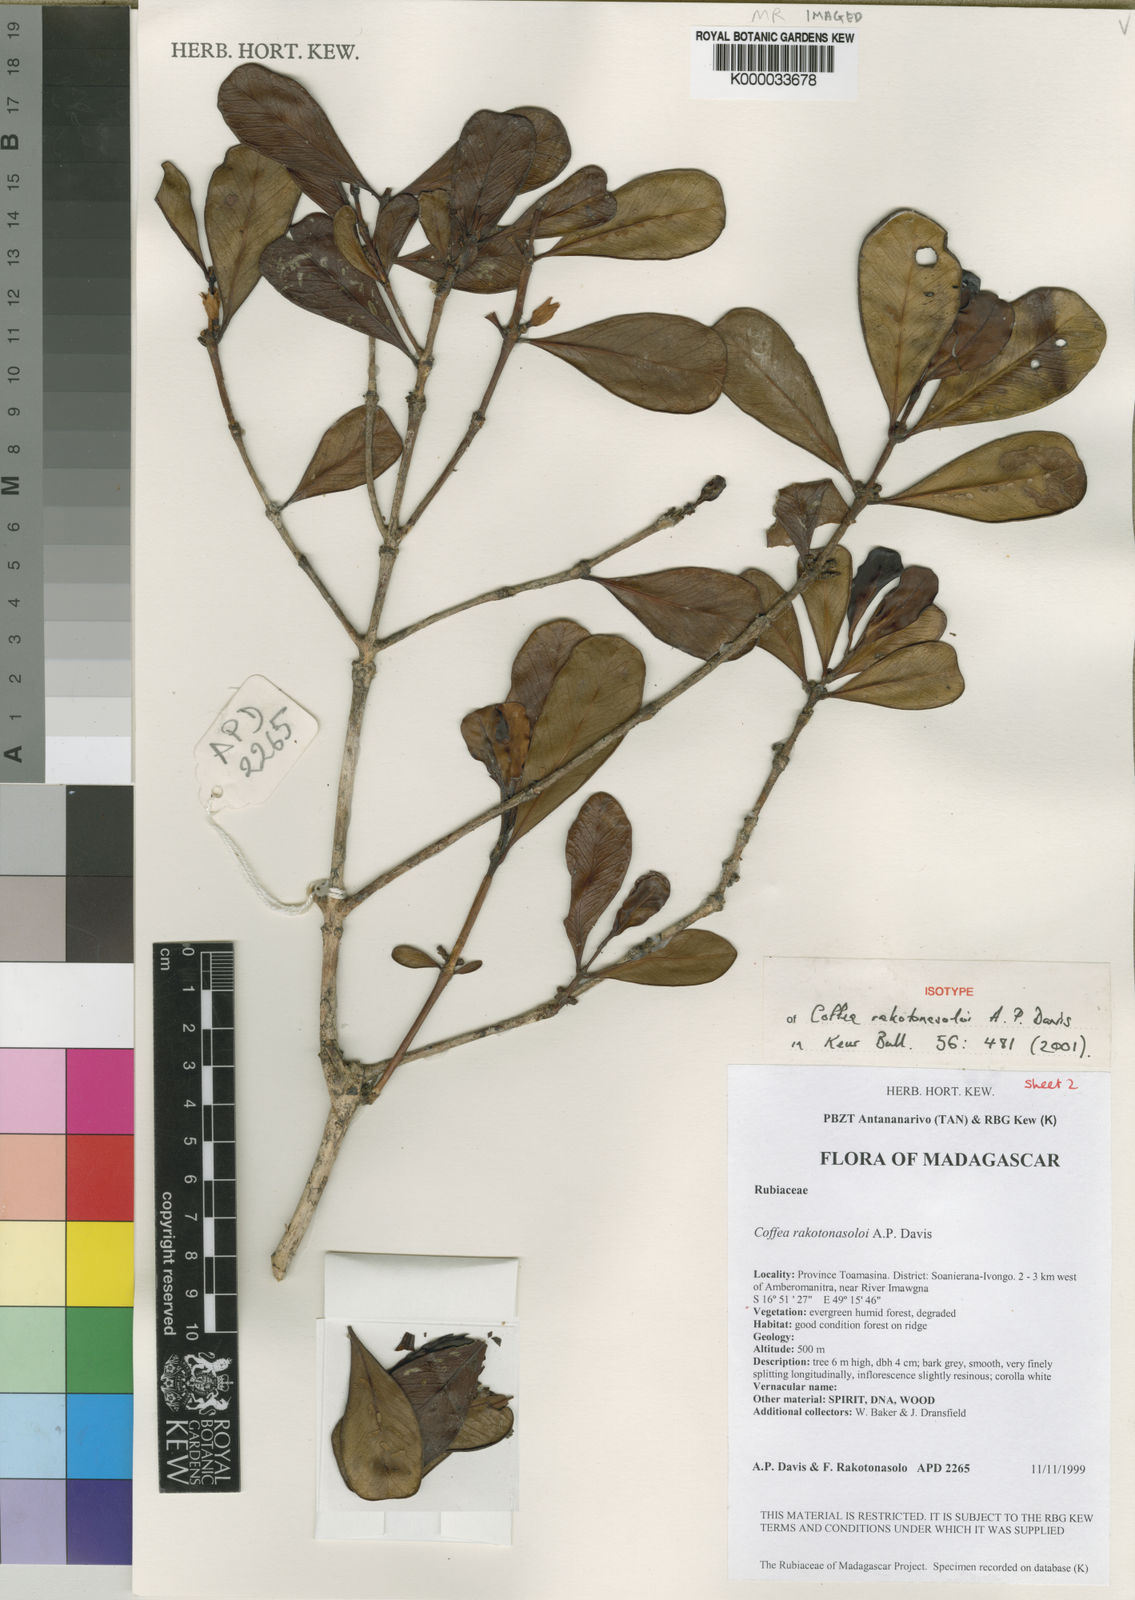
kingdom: Plantae
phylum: Tracheophyta
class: Magnoliopsida
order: Gentianales
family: Rubiaceae
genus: Coffea
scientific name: Coffea rakotonasoloi
